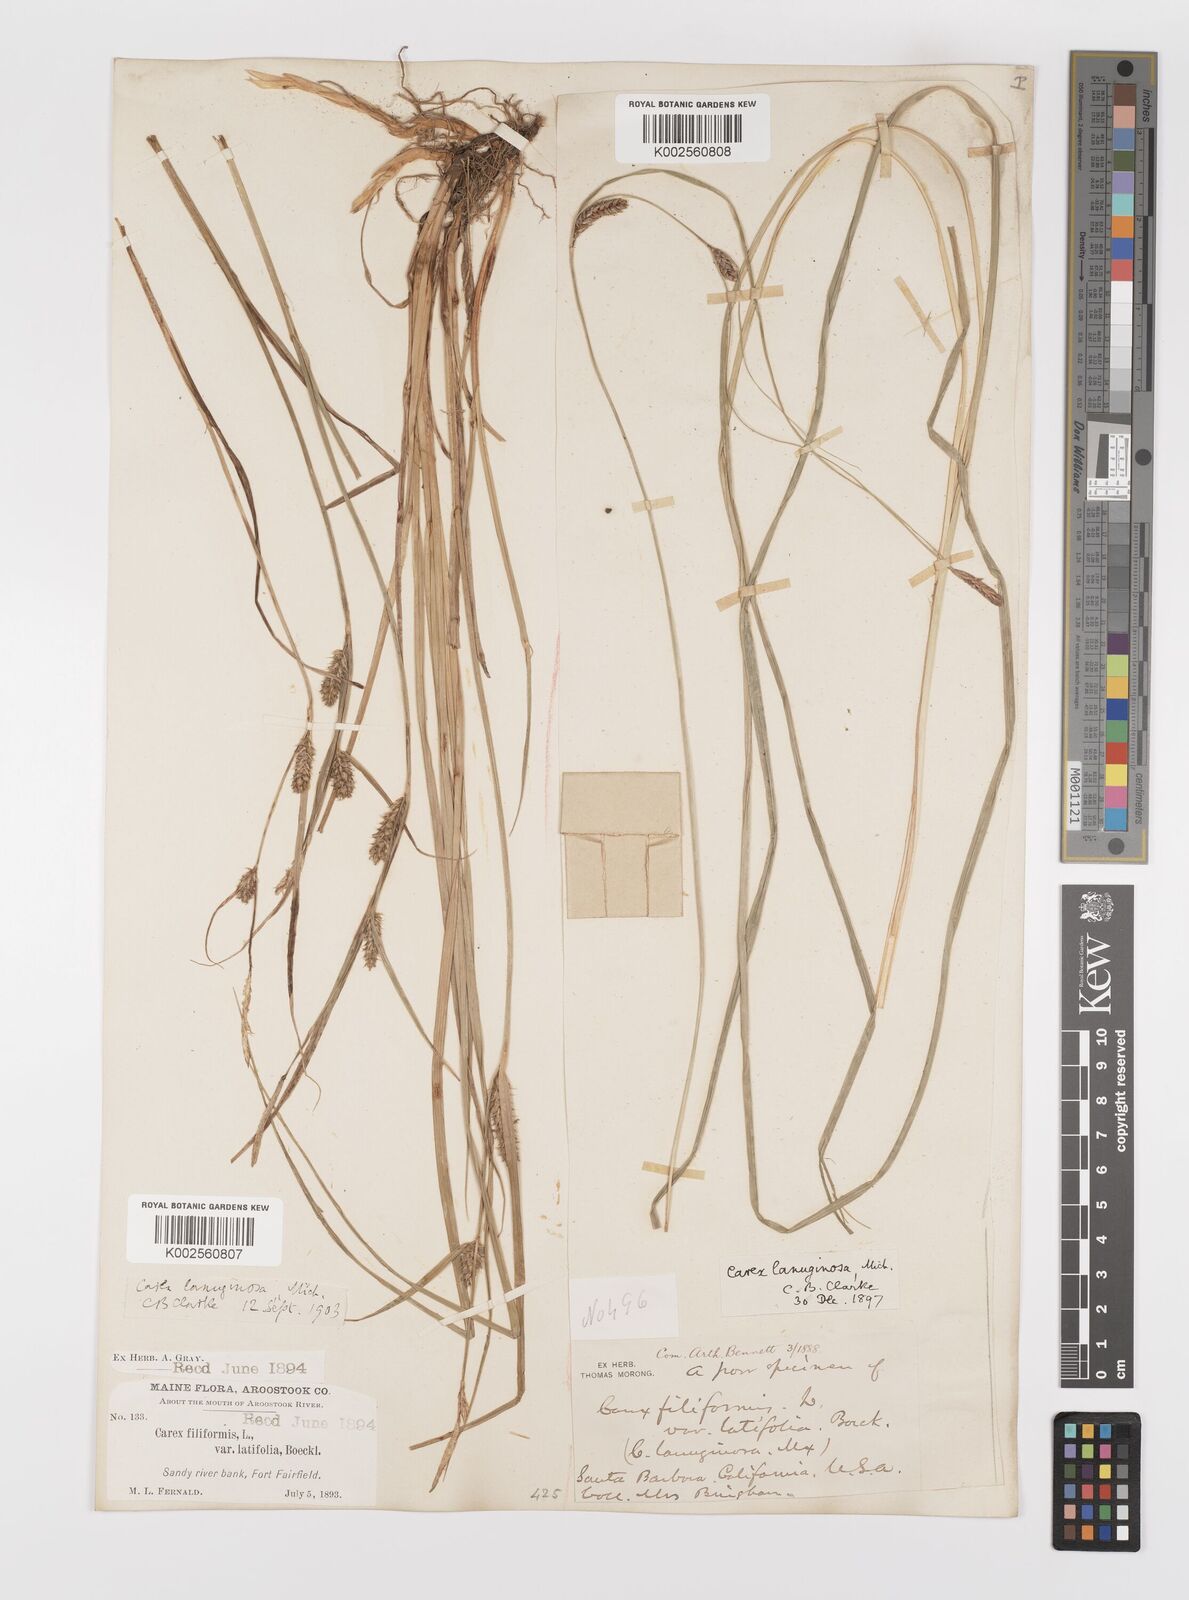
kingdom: Plantae
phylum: Tracheophyta
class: Liliopsida
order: Poales
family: Cyperaceae
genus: Carex
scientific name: Carex lasiocarpa
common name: Slender sedge
